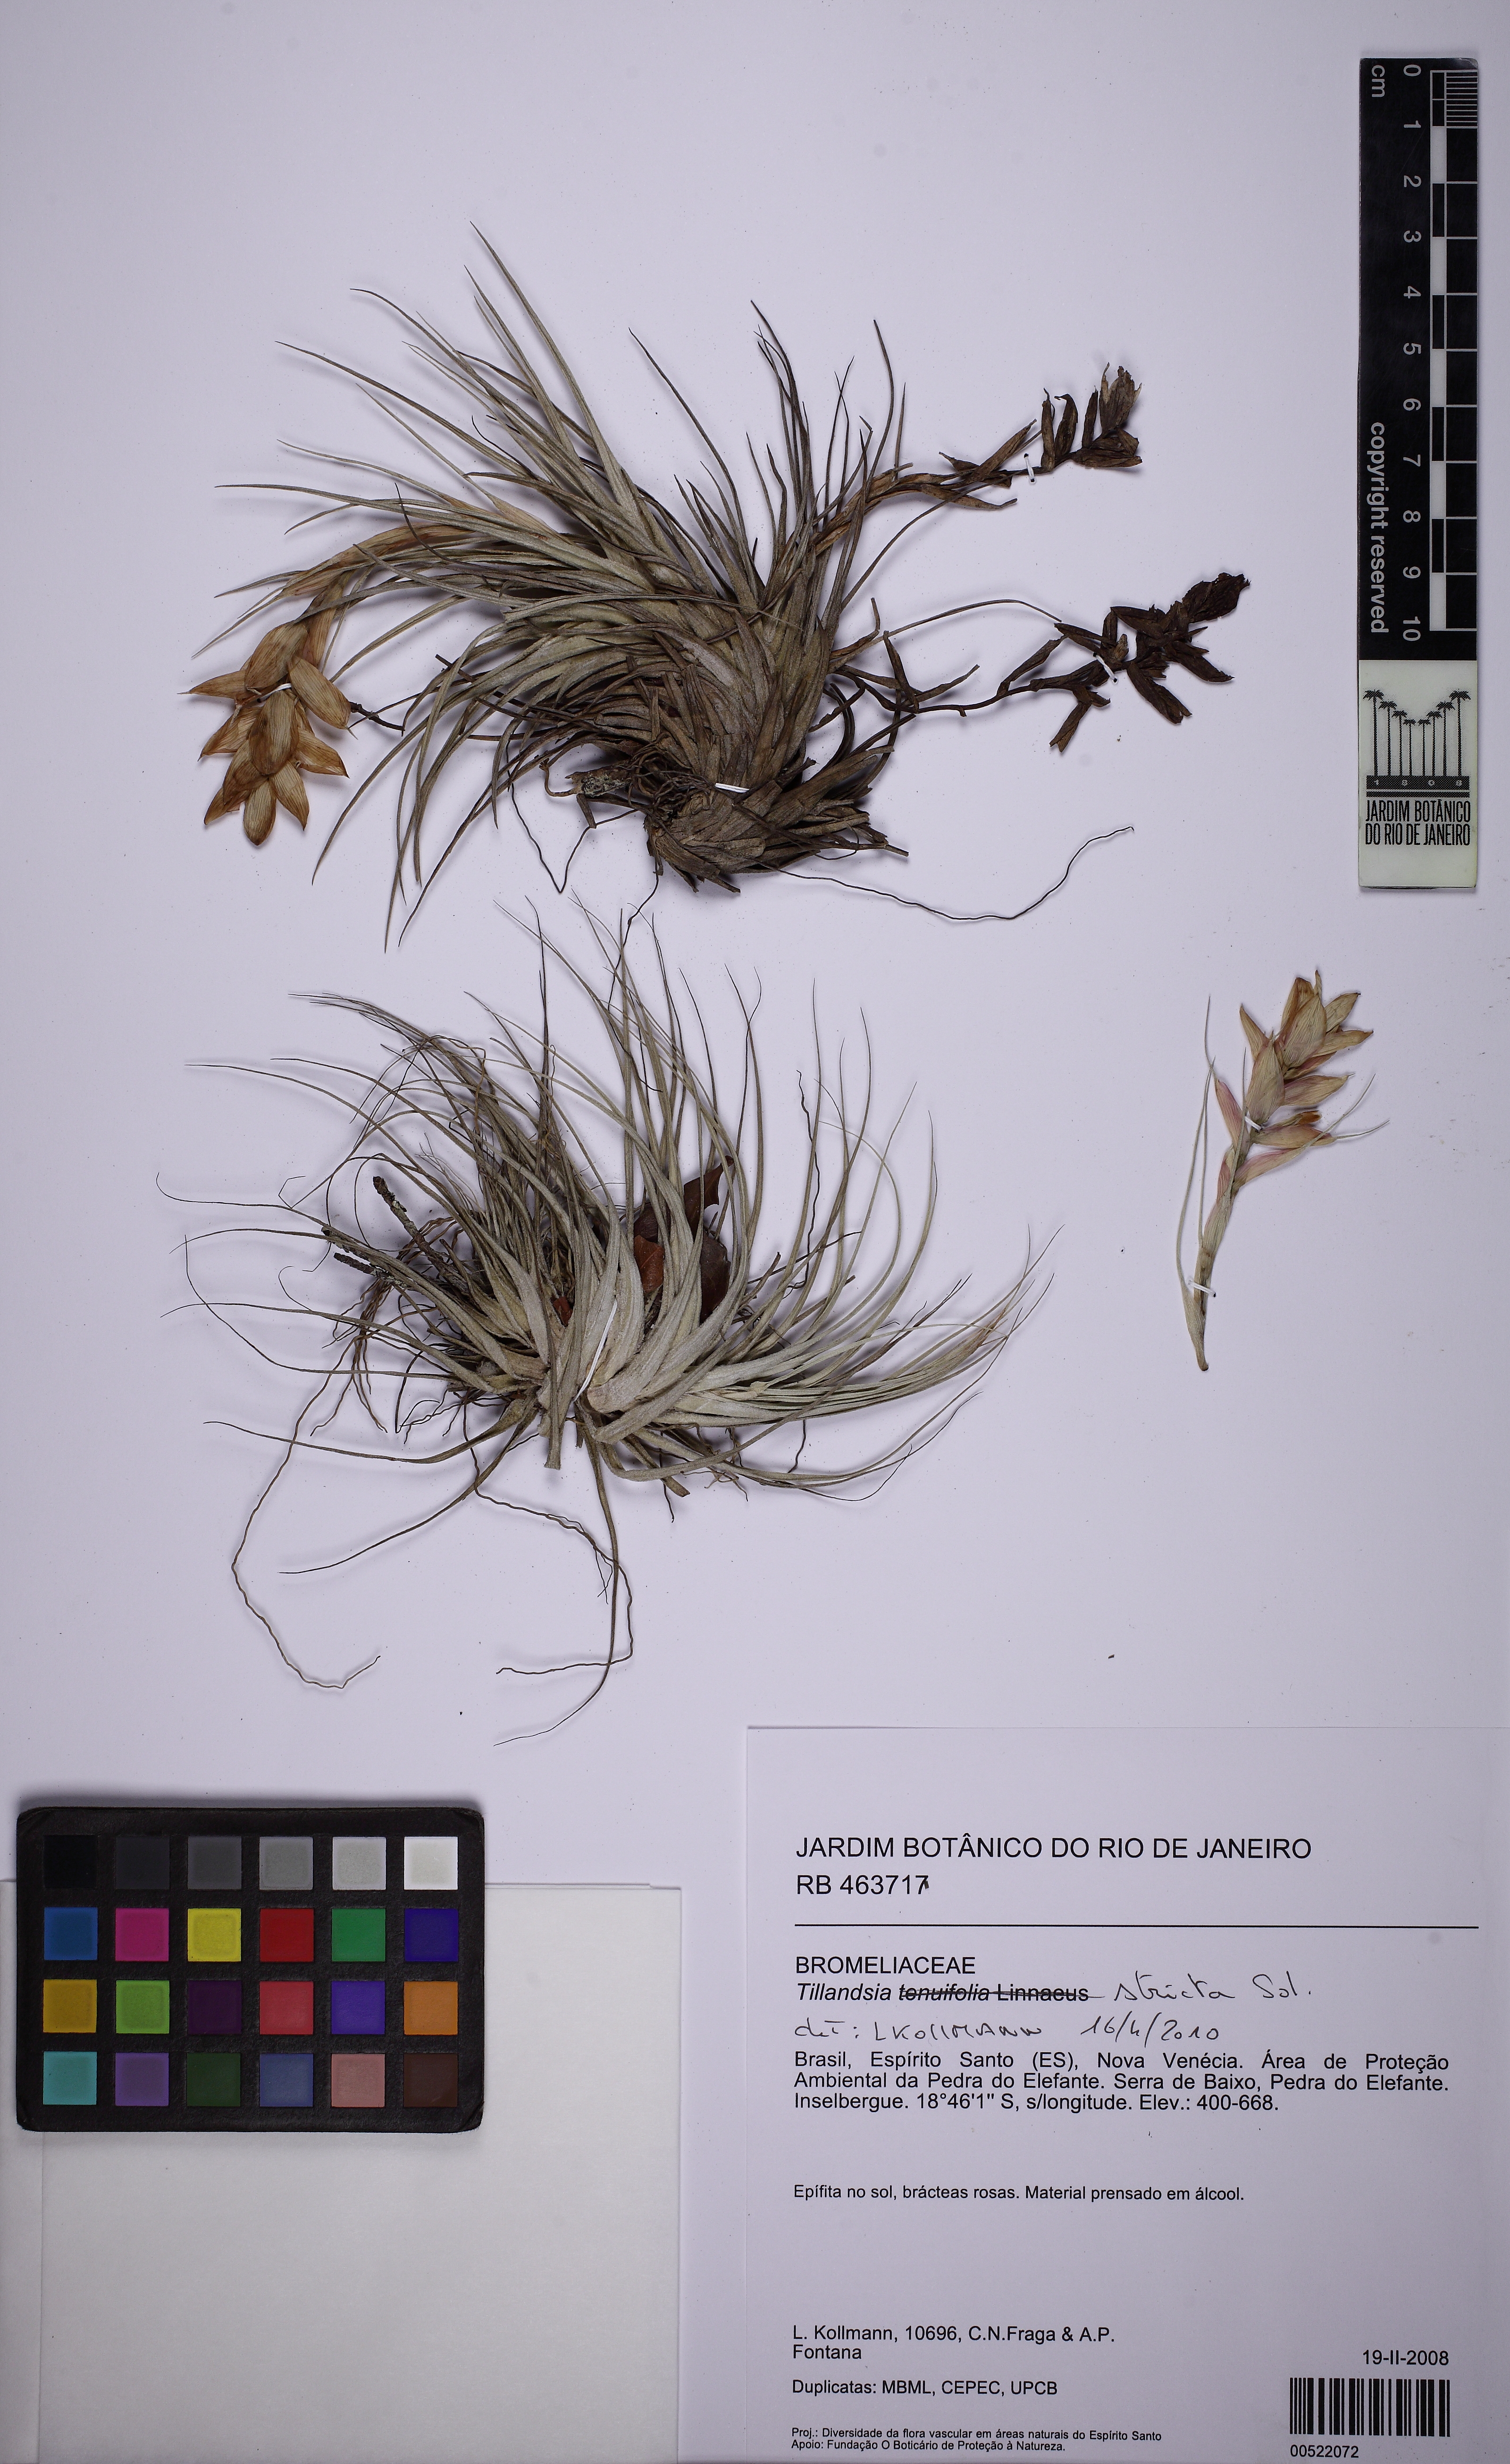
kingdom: Plantae
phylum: Tracheophyta
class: Liliopsida
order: Poales
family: Bromeliaceae
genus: Tillandsia
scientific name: Tillandsia stricta
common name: Airplant
